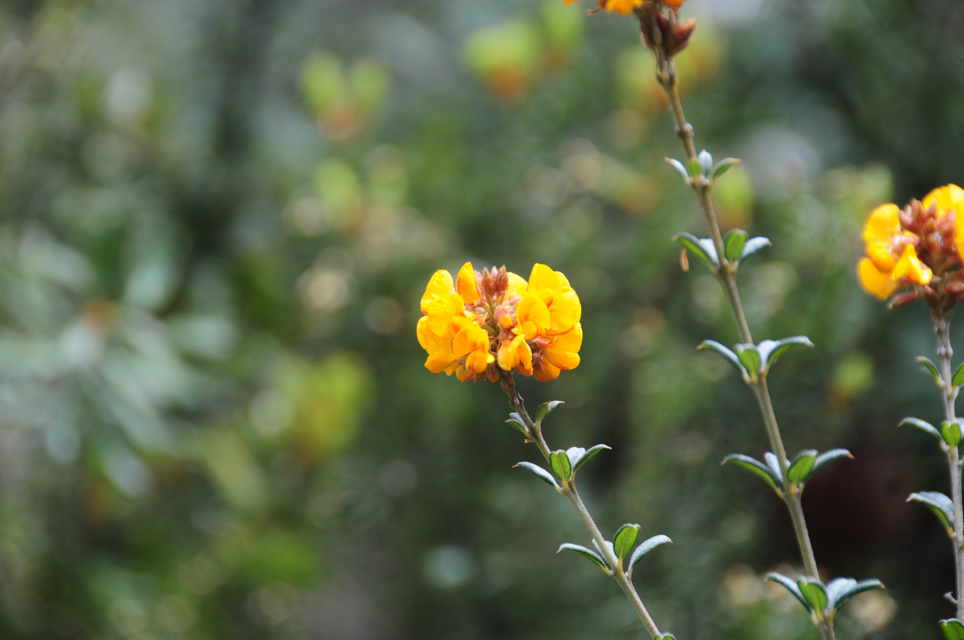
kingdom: Plantae
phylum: Tracheophyta
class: Magnoliopsida
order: Fabales
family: Fabaceae
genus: Oxylobium
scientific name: Oxylobium arborescens
